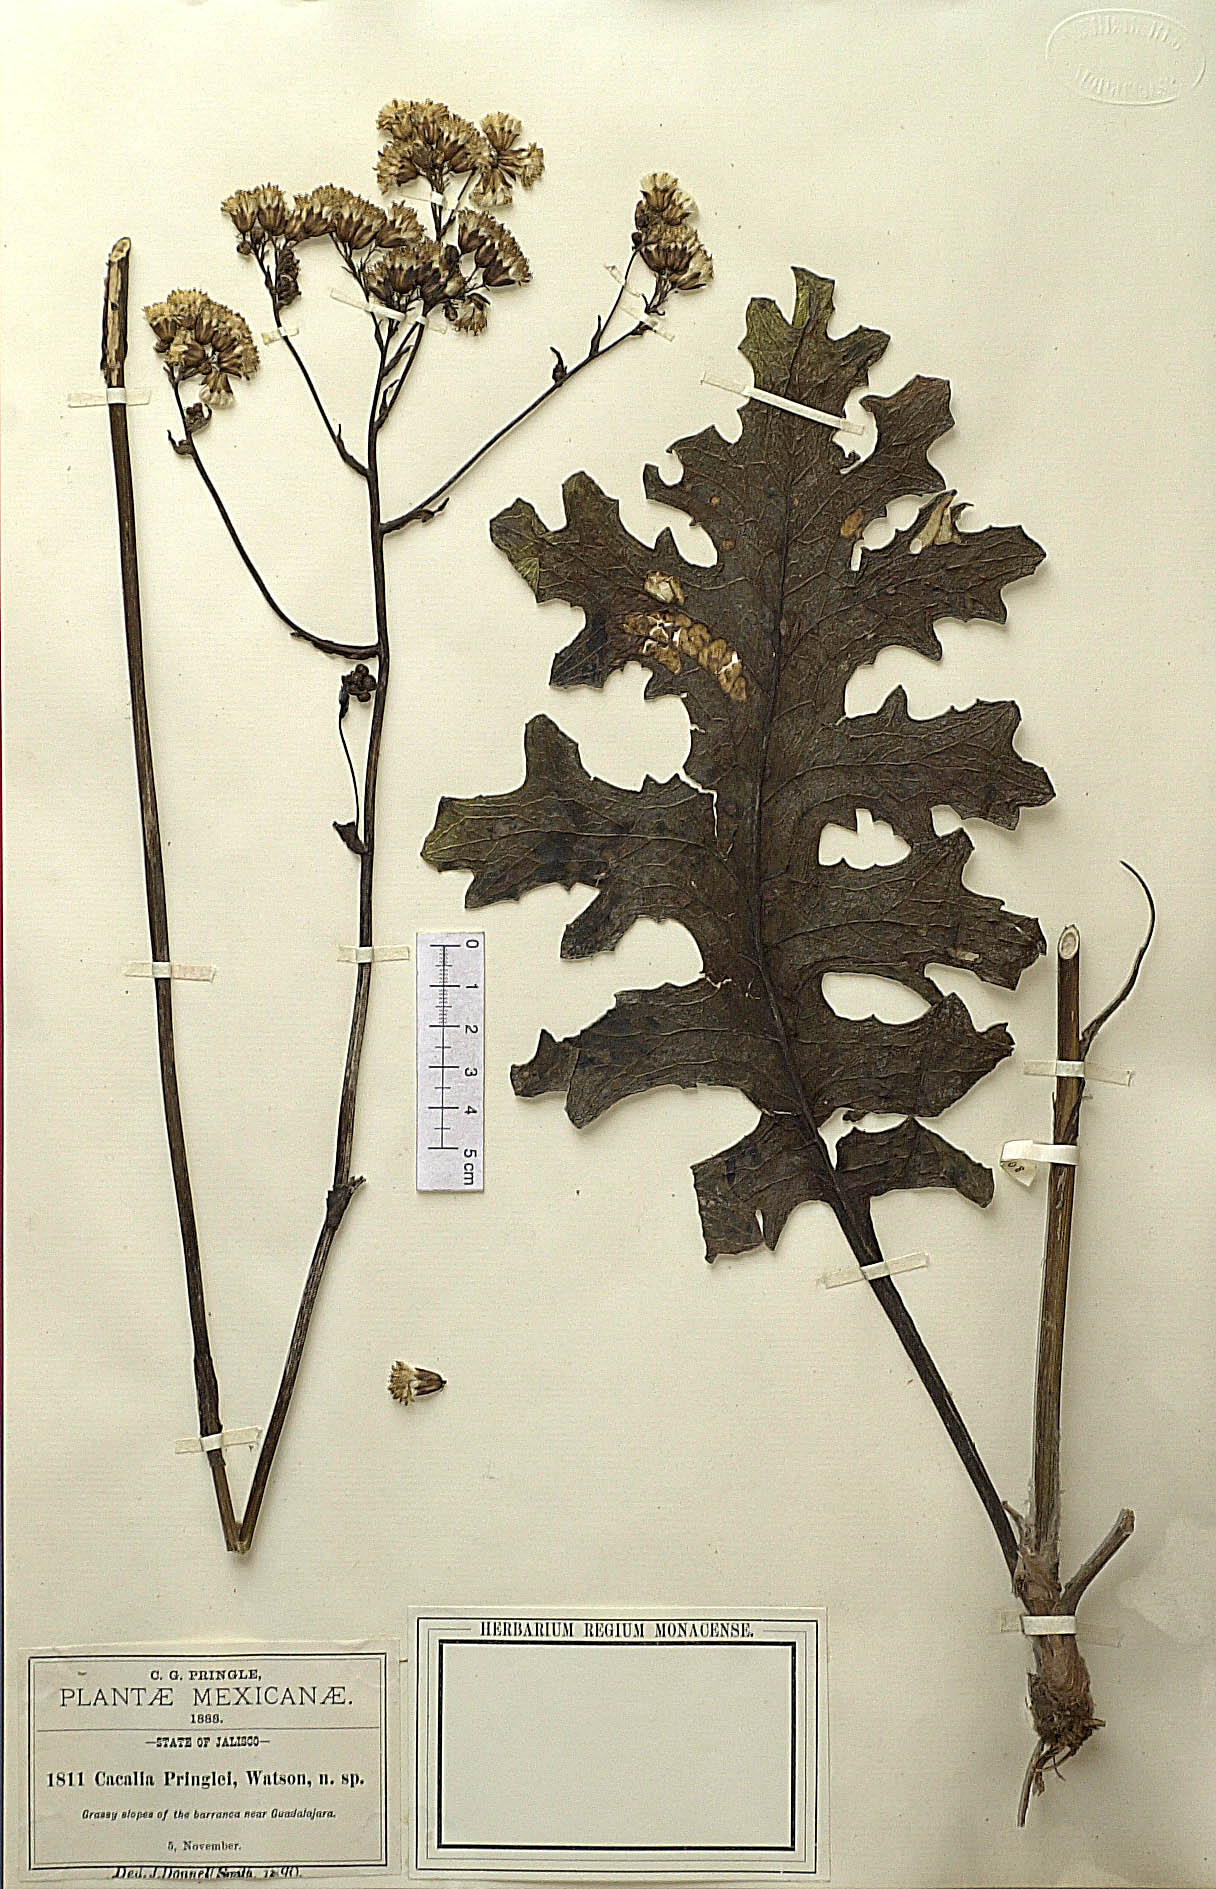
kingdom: Plantae
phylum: Tracheophyta
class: Magnoliopsida
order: Asterales
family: Asteraceae
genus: Psacalium
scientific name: Psacalium pringlei
